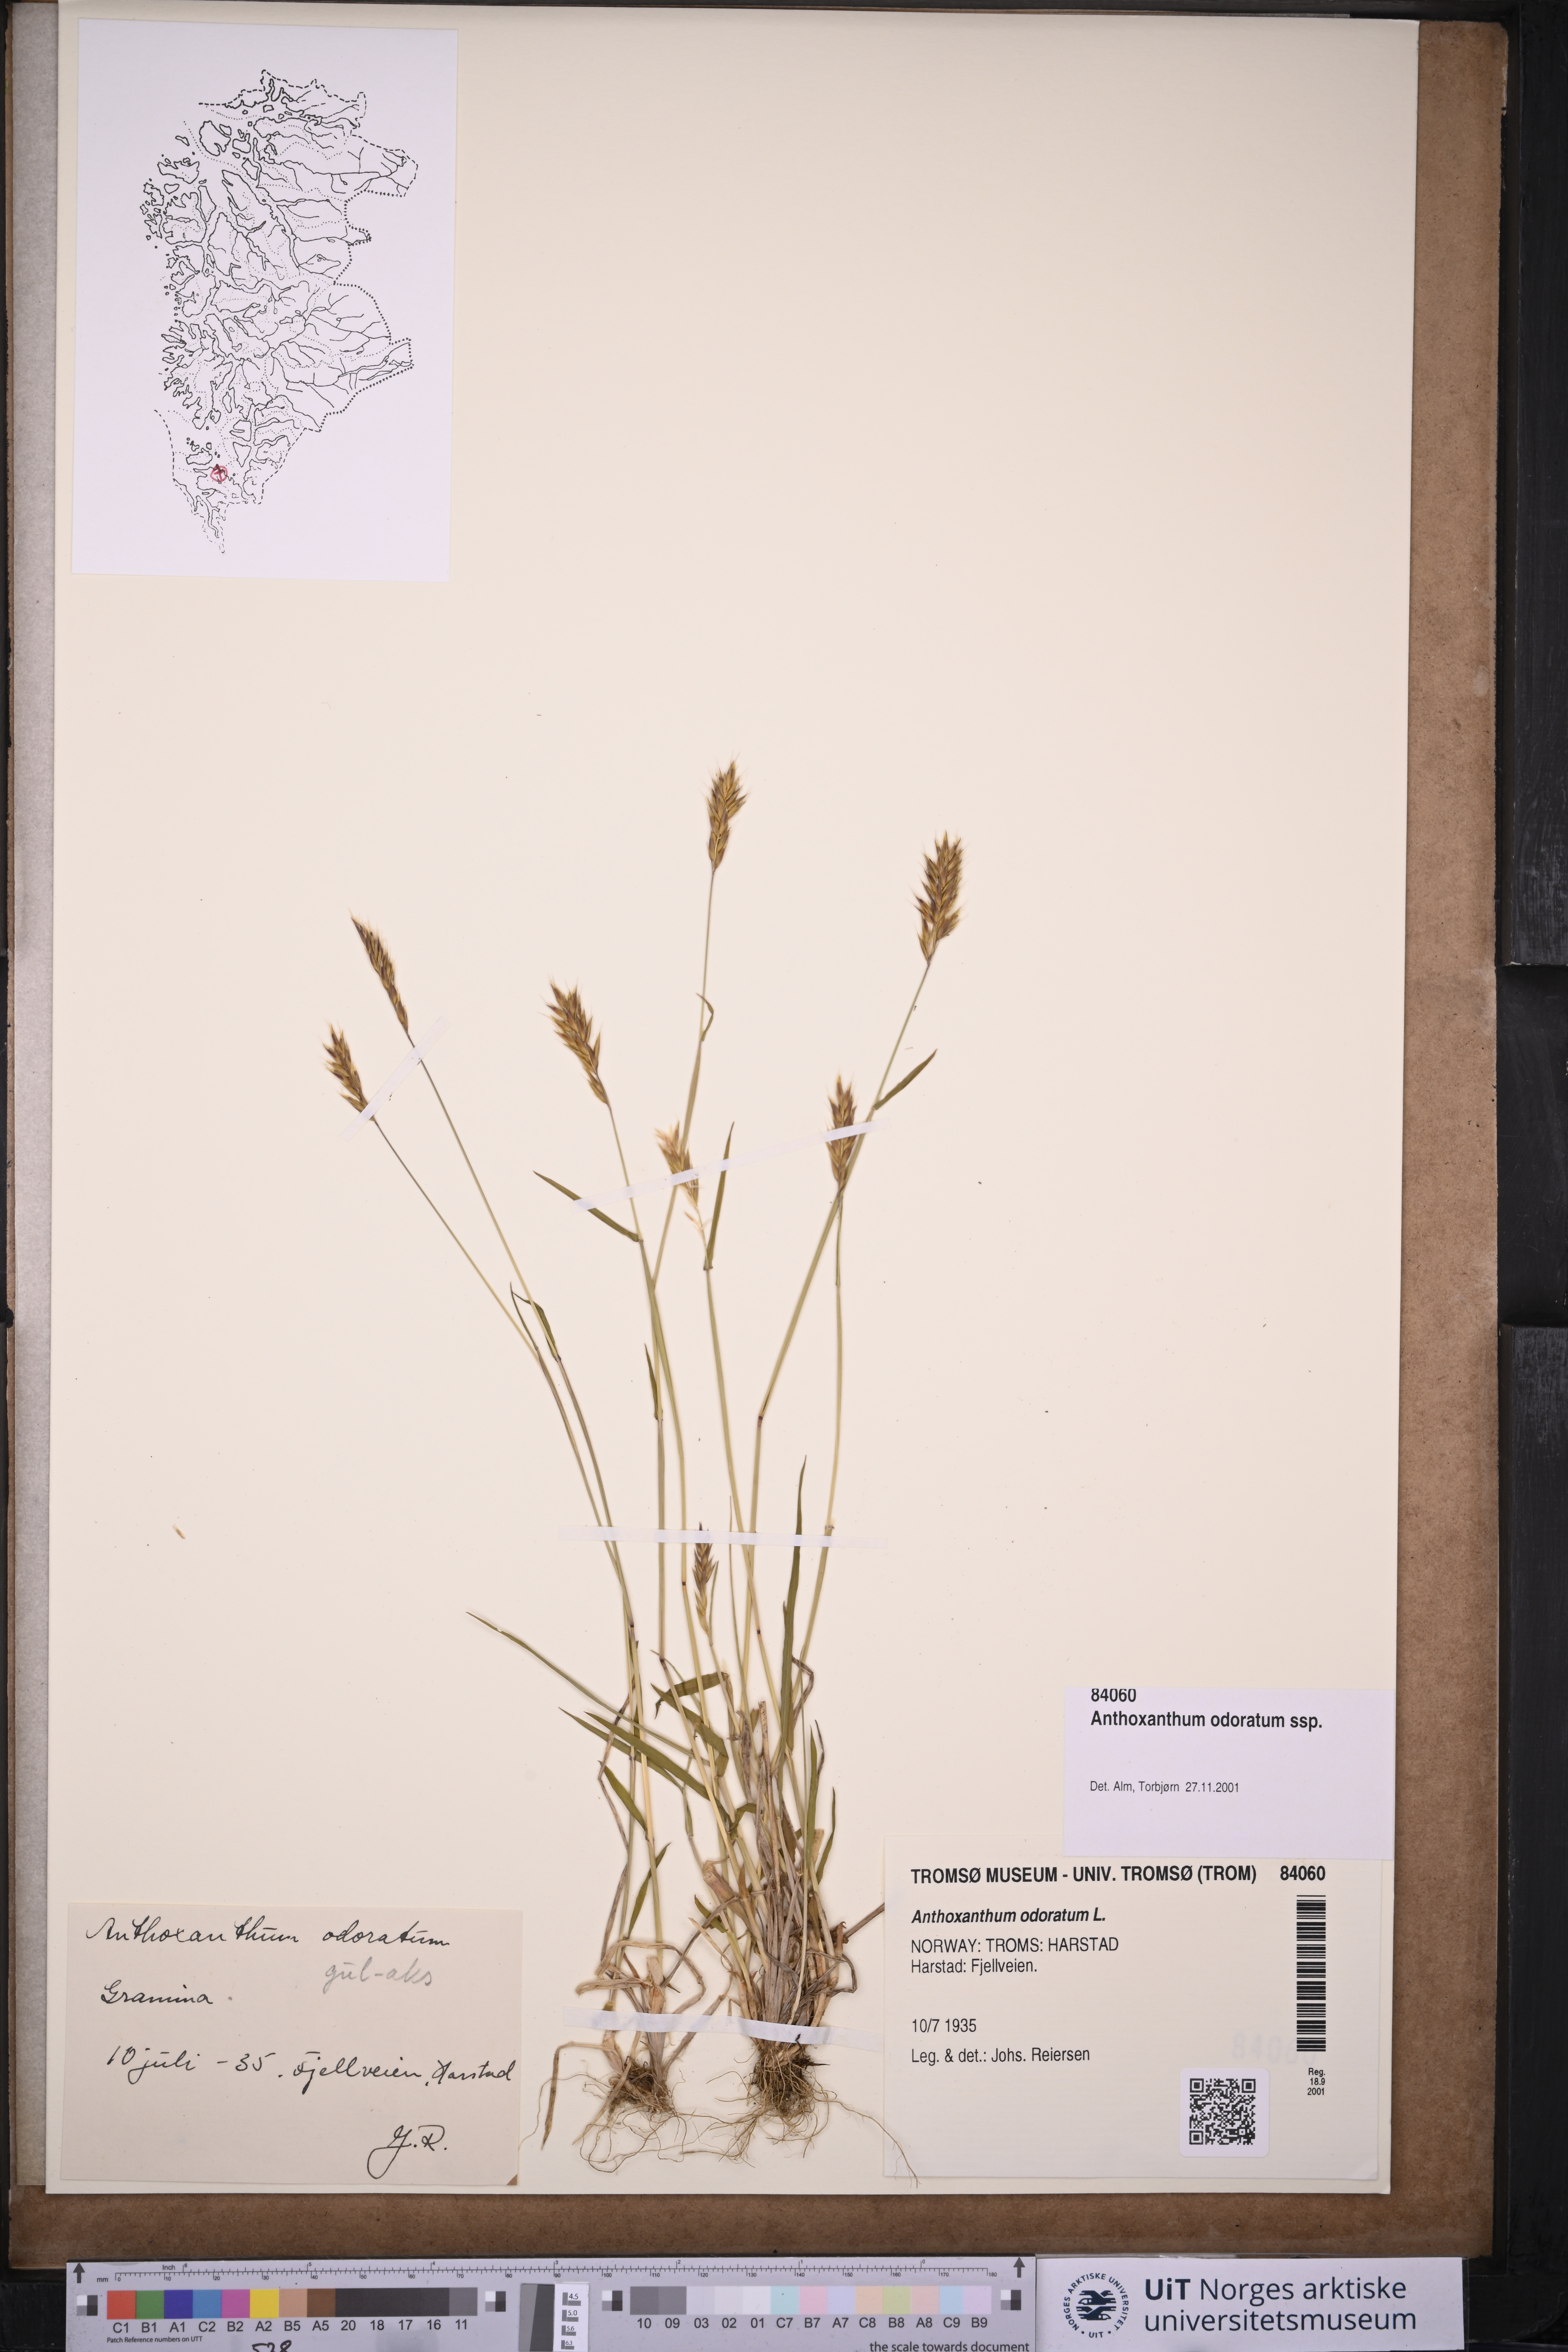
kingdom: Plantae
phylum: Tracheophyta
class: Liliopsida
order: Poales
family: Poaceae
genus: Anthoxanthum
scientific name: Anthoxanthum nipponicum
